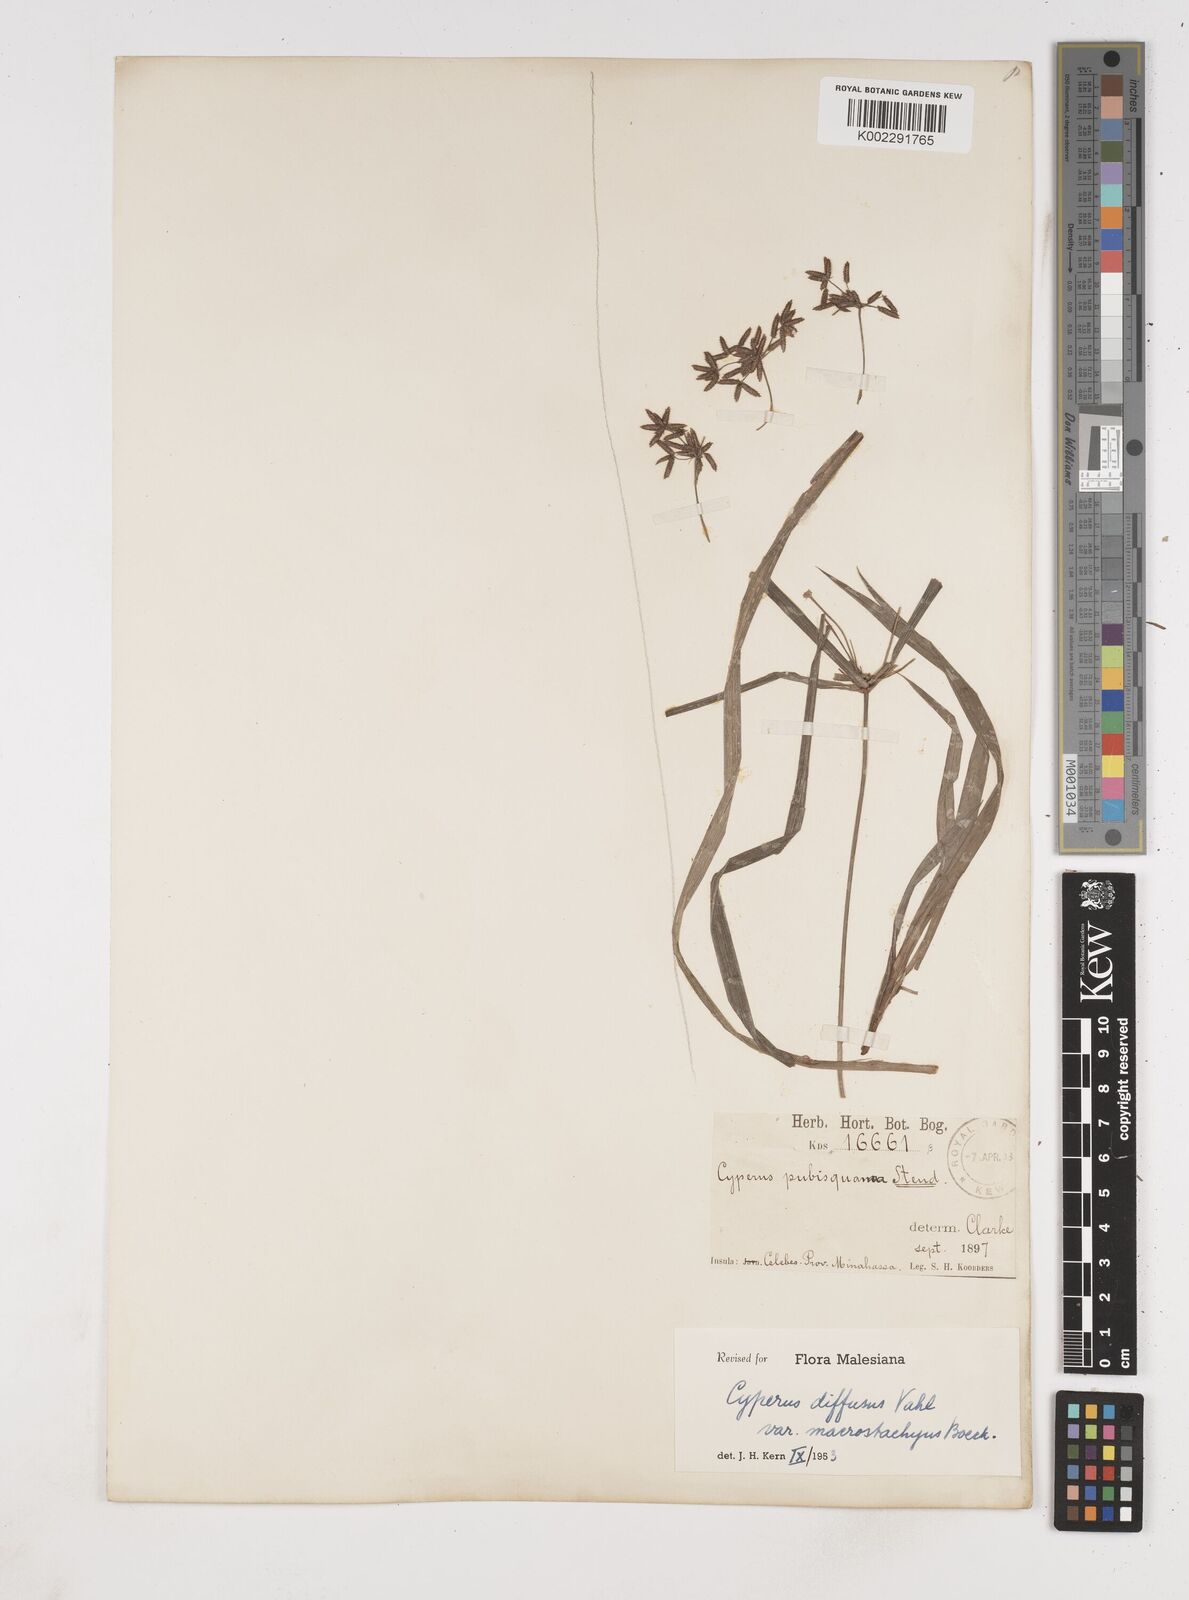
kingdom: Plantae
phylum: Tracheophyta
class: Liliopsida
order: Poales
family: Cyperaceae
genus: Cyperus
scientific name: Cyperus diffusus
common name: Dwarf umbrella grass
